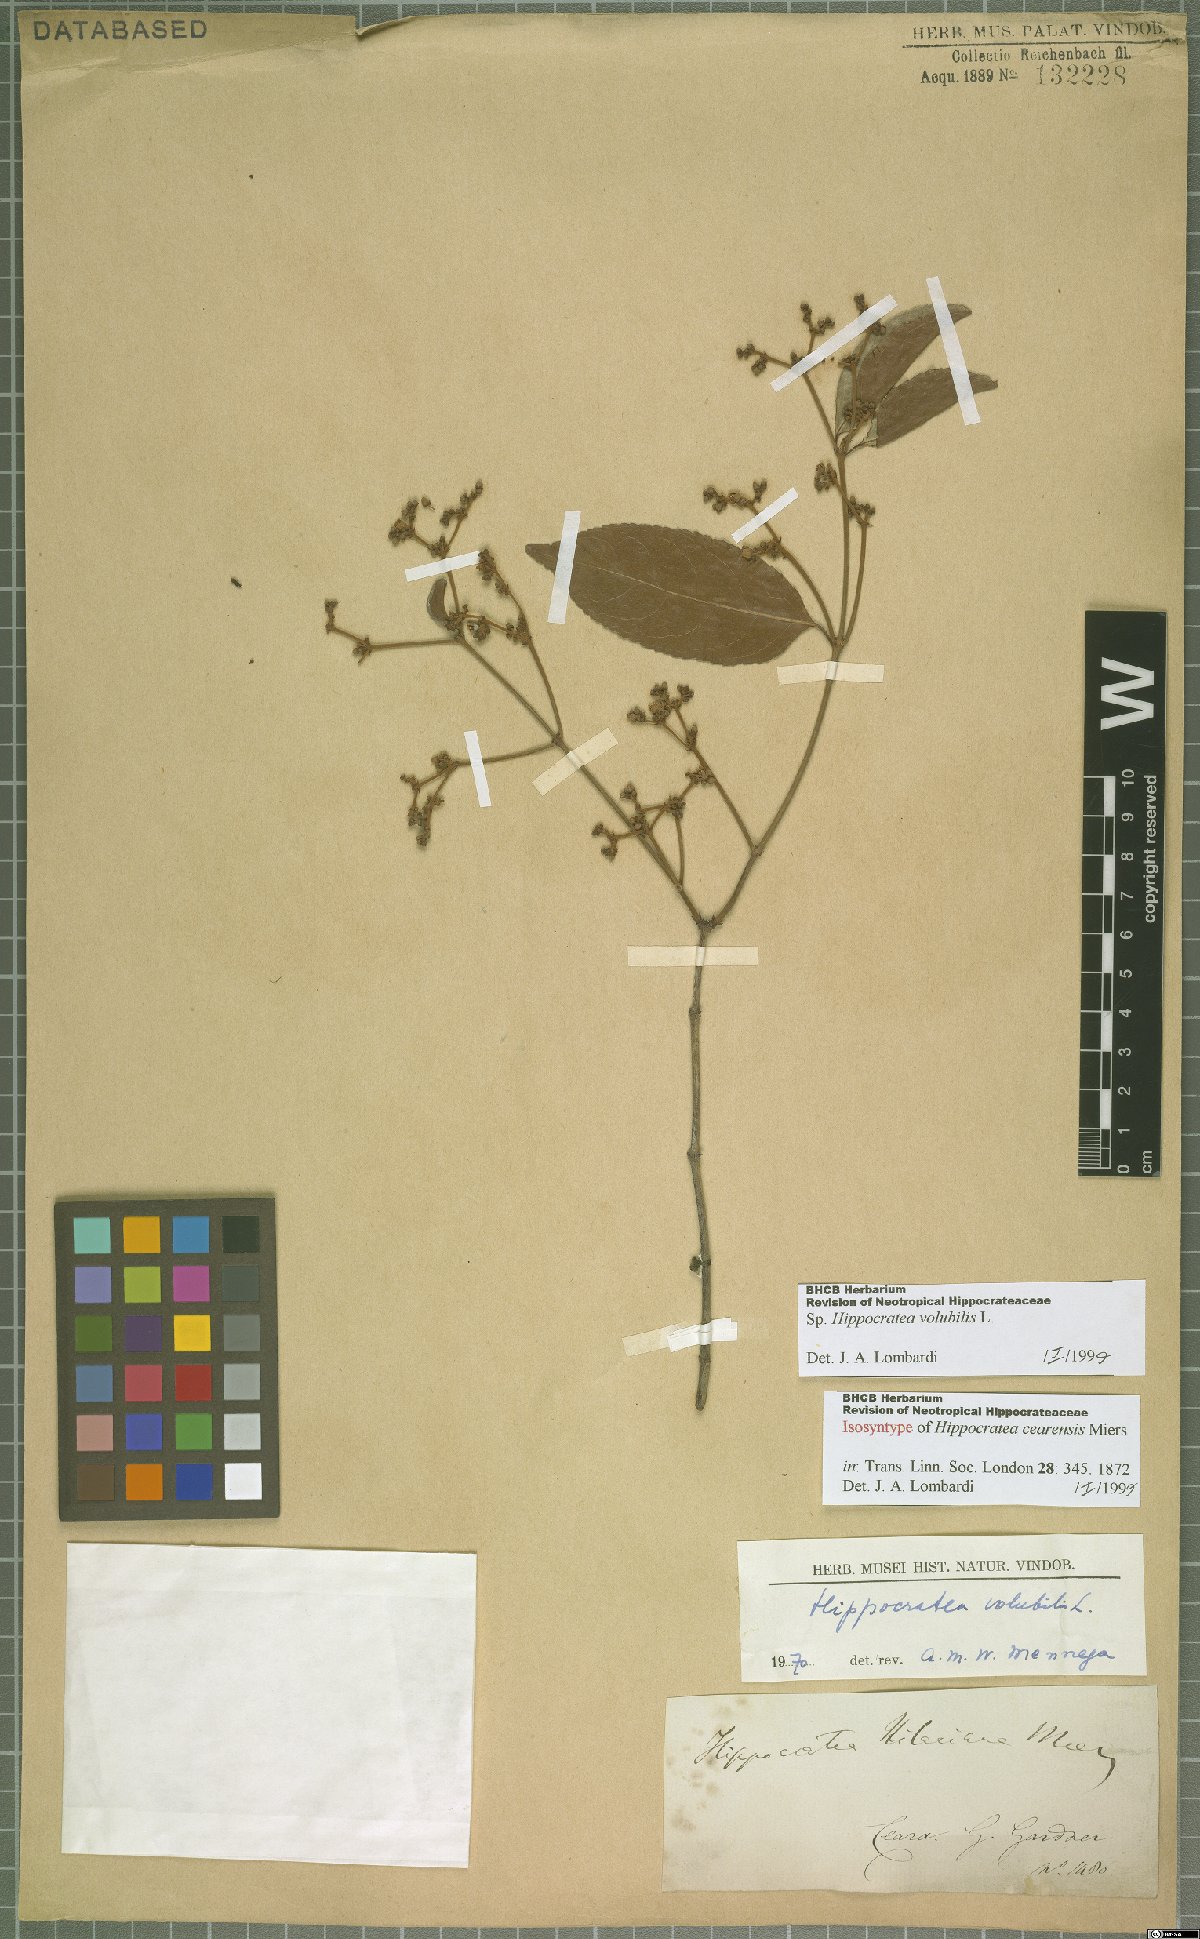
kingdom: Plantae
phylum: Tracheophyta
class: Magnoliopsida
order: Celastrales
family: Celastraceae
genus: Hippocratea
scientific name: Hippocratea volubilis
